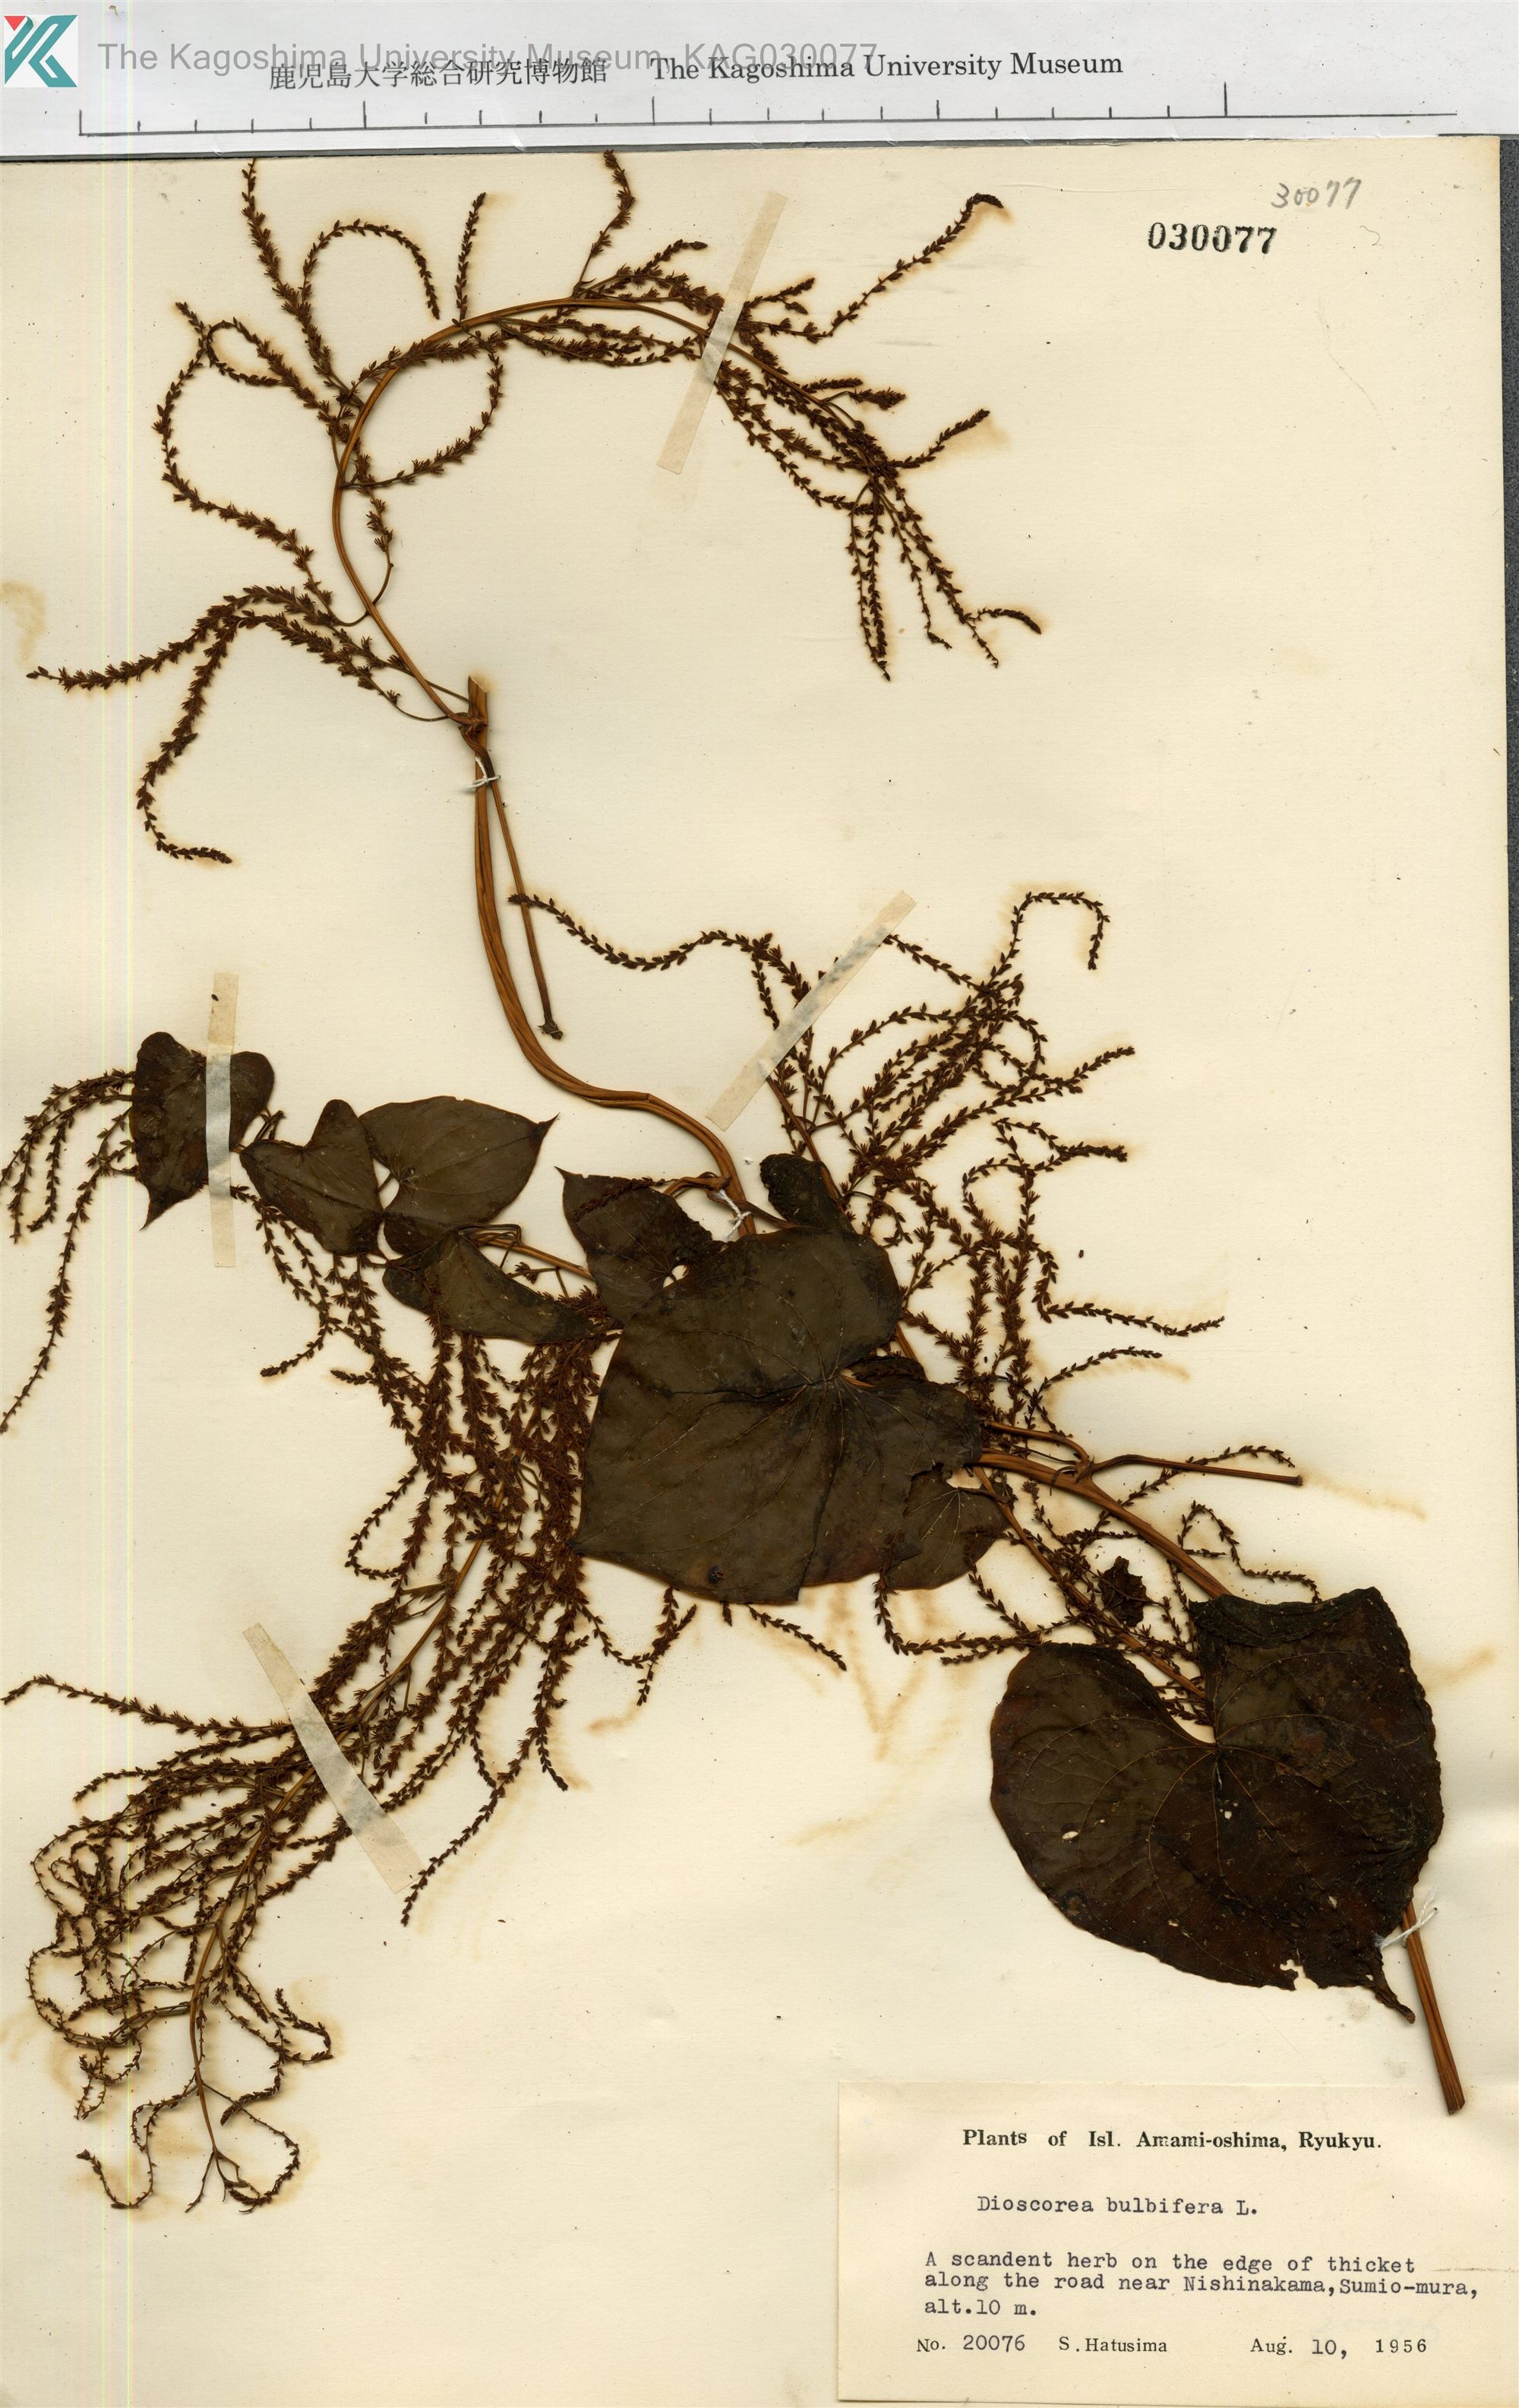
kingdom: Plantae
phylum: Tracheophyta
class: Liliopsida
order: Dioscoreales
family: Dioscoreaceae
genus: Dioscorea
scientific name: Dioscorea bulbifera
